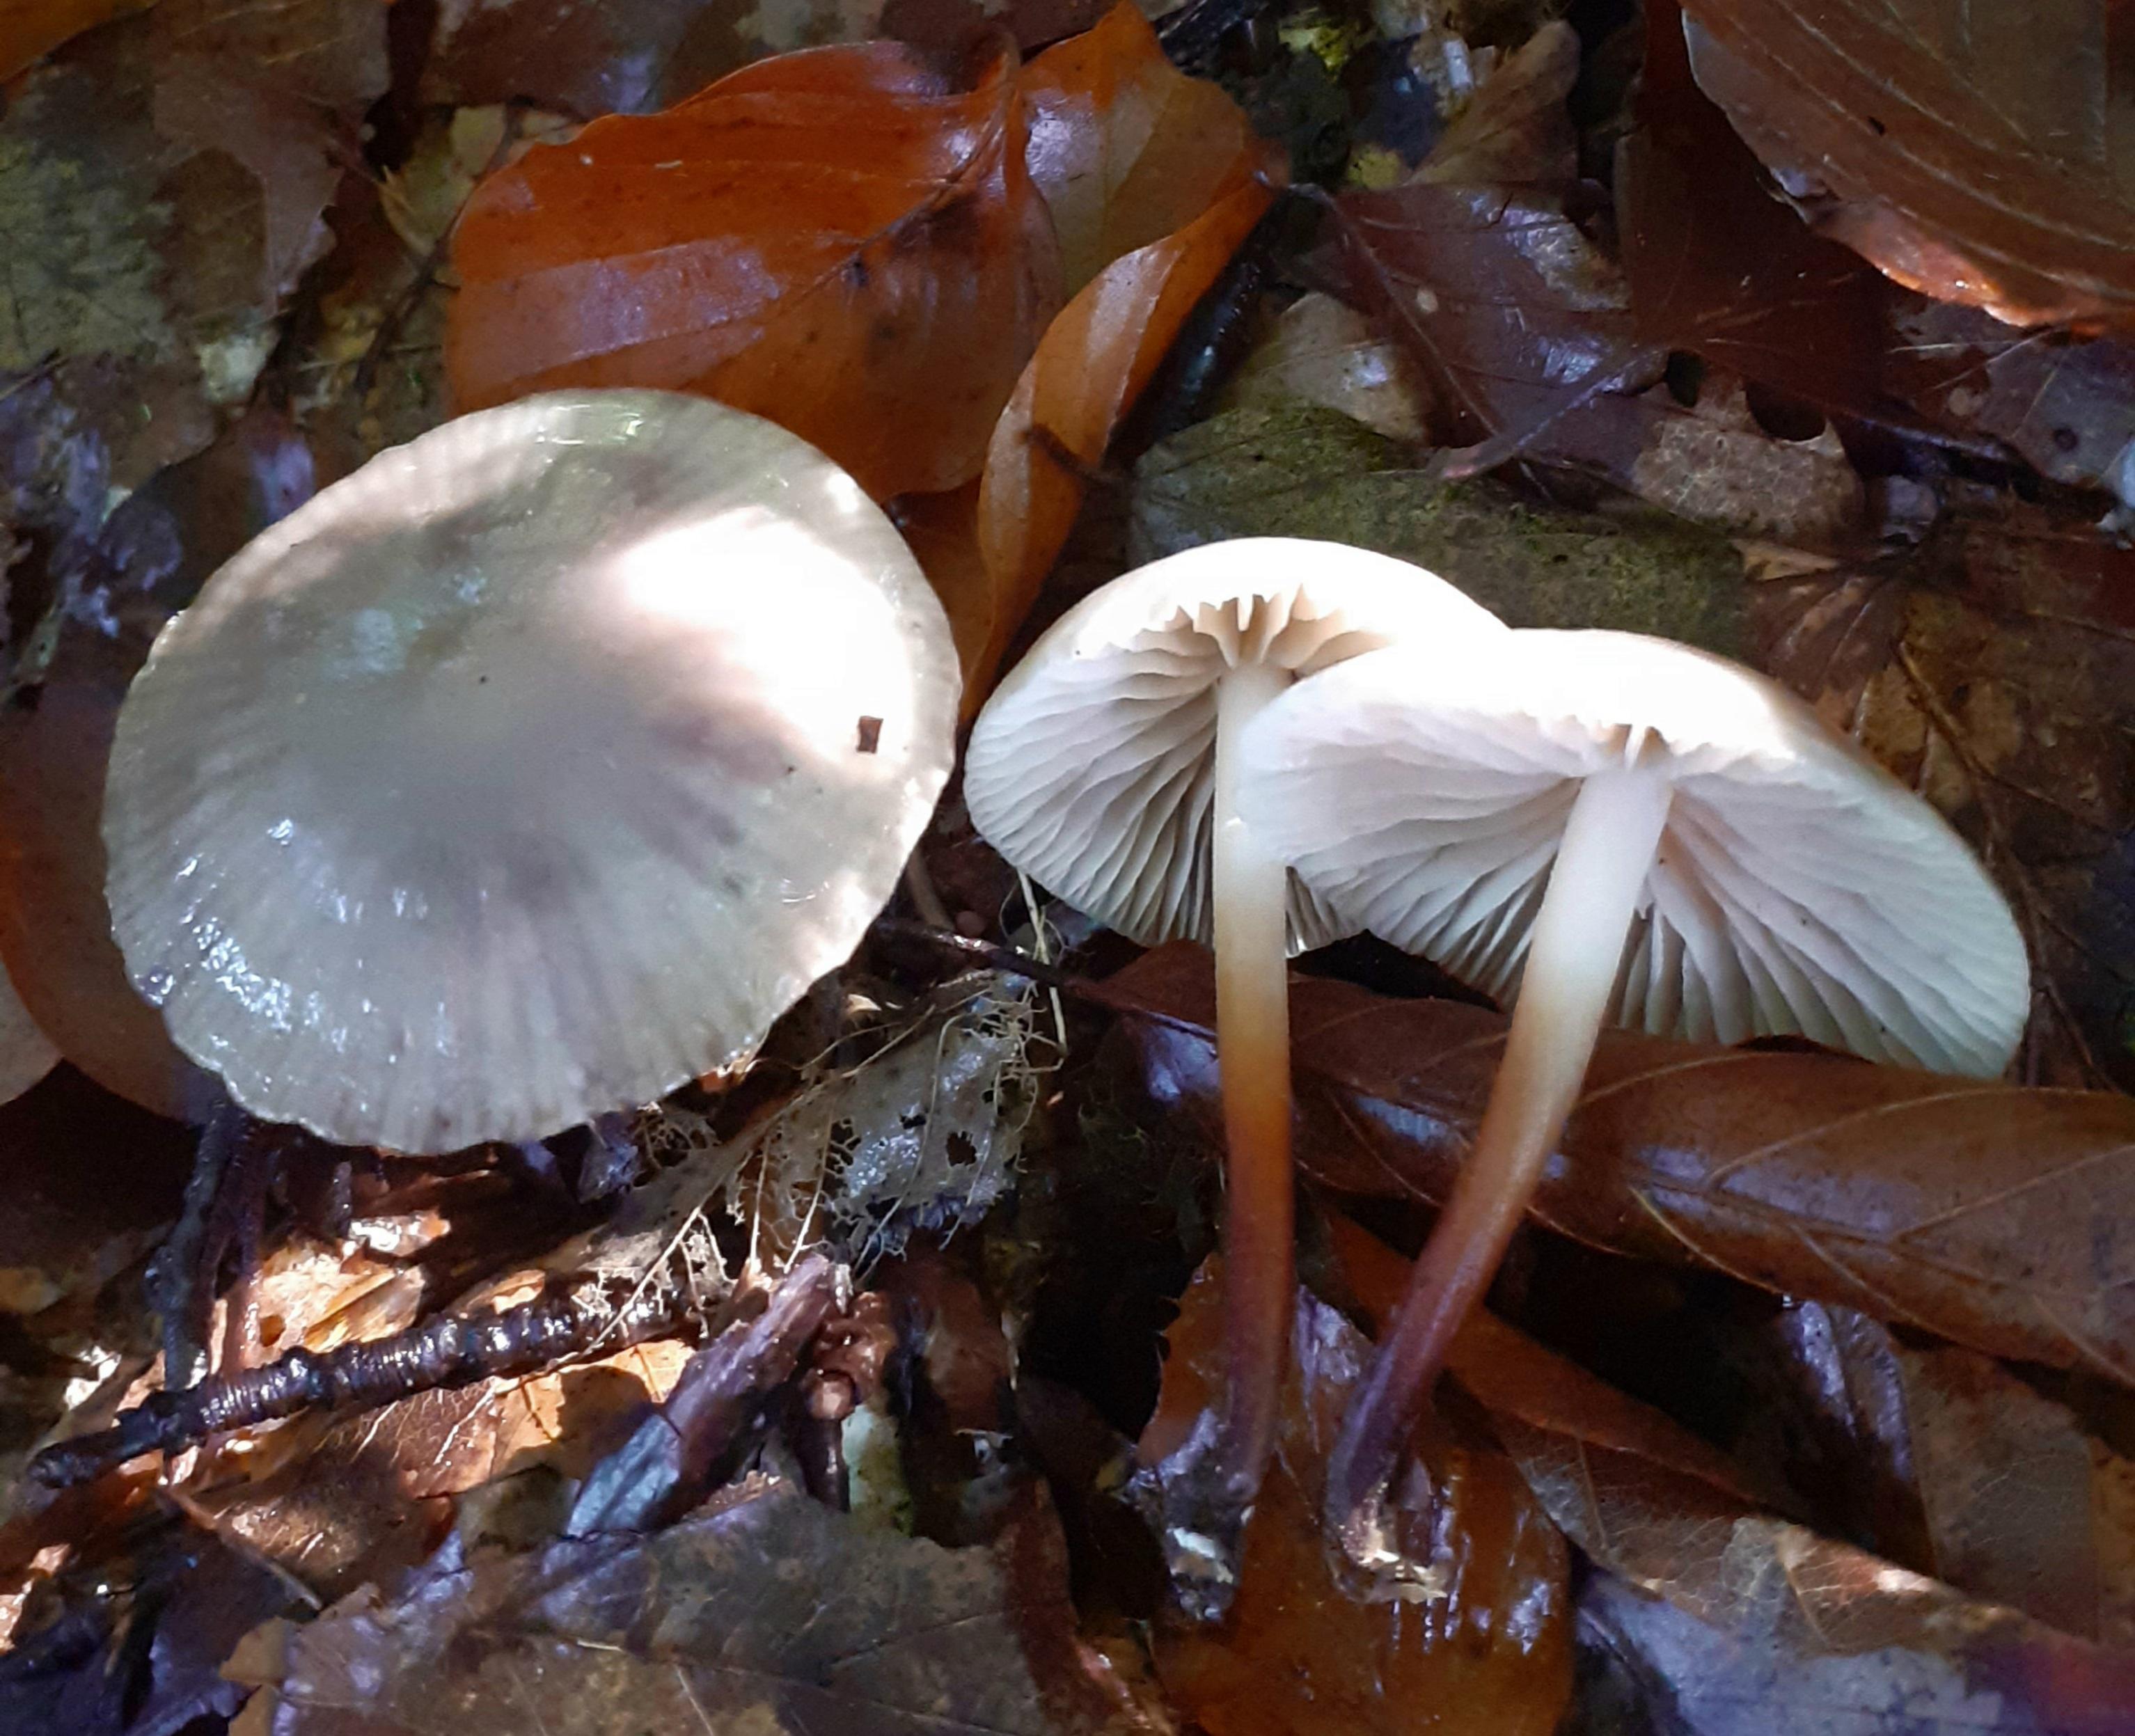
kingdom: Fungi
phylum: Basidiomycota
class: Agaricomycetes
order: Agaricales
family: Marasmiaceae
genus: Marasmius
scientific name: Marasmius wynneae
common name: hvælvet bruskhat
